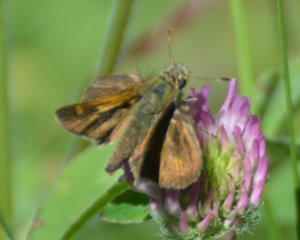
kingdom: Animalia
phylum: Arthropoda
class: Insecta
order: Lepidoptera
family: Hesperiidae
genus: Polites
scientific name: Polites themistocles
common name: Tawny-edged Skipper
